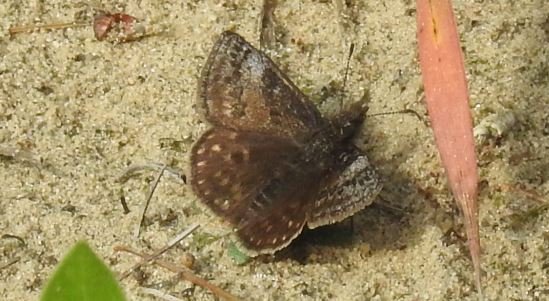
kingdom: Animalia
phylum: Arthropoda
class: Insecta
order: Lepidoptera
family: Hesperiidae
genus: Erynnis
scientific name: Erynnis icelus
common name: Dreamy Duskywing
